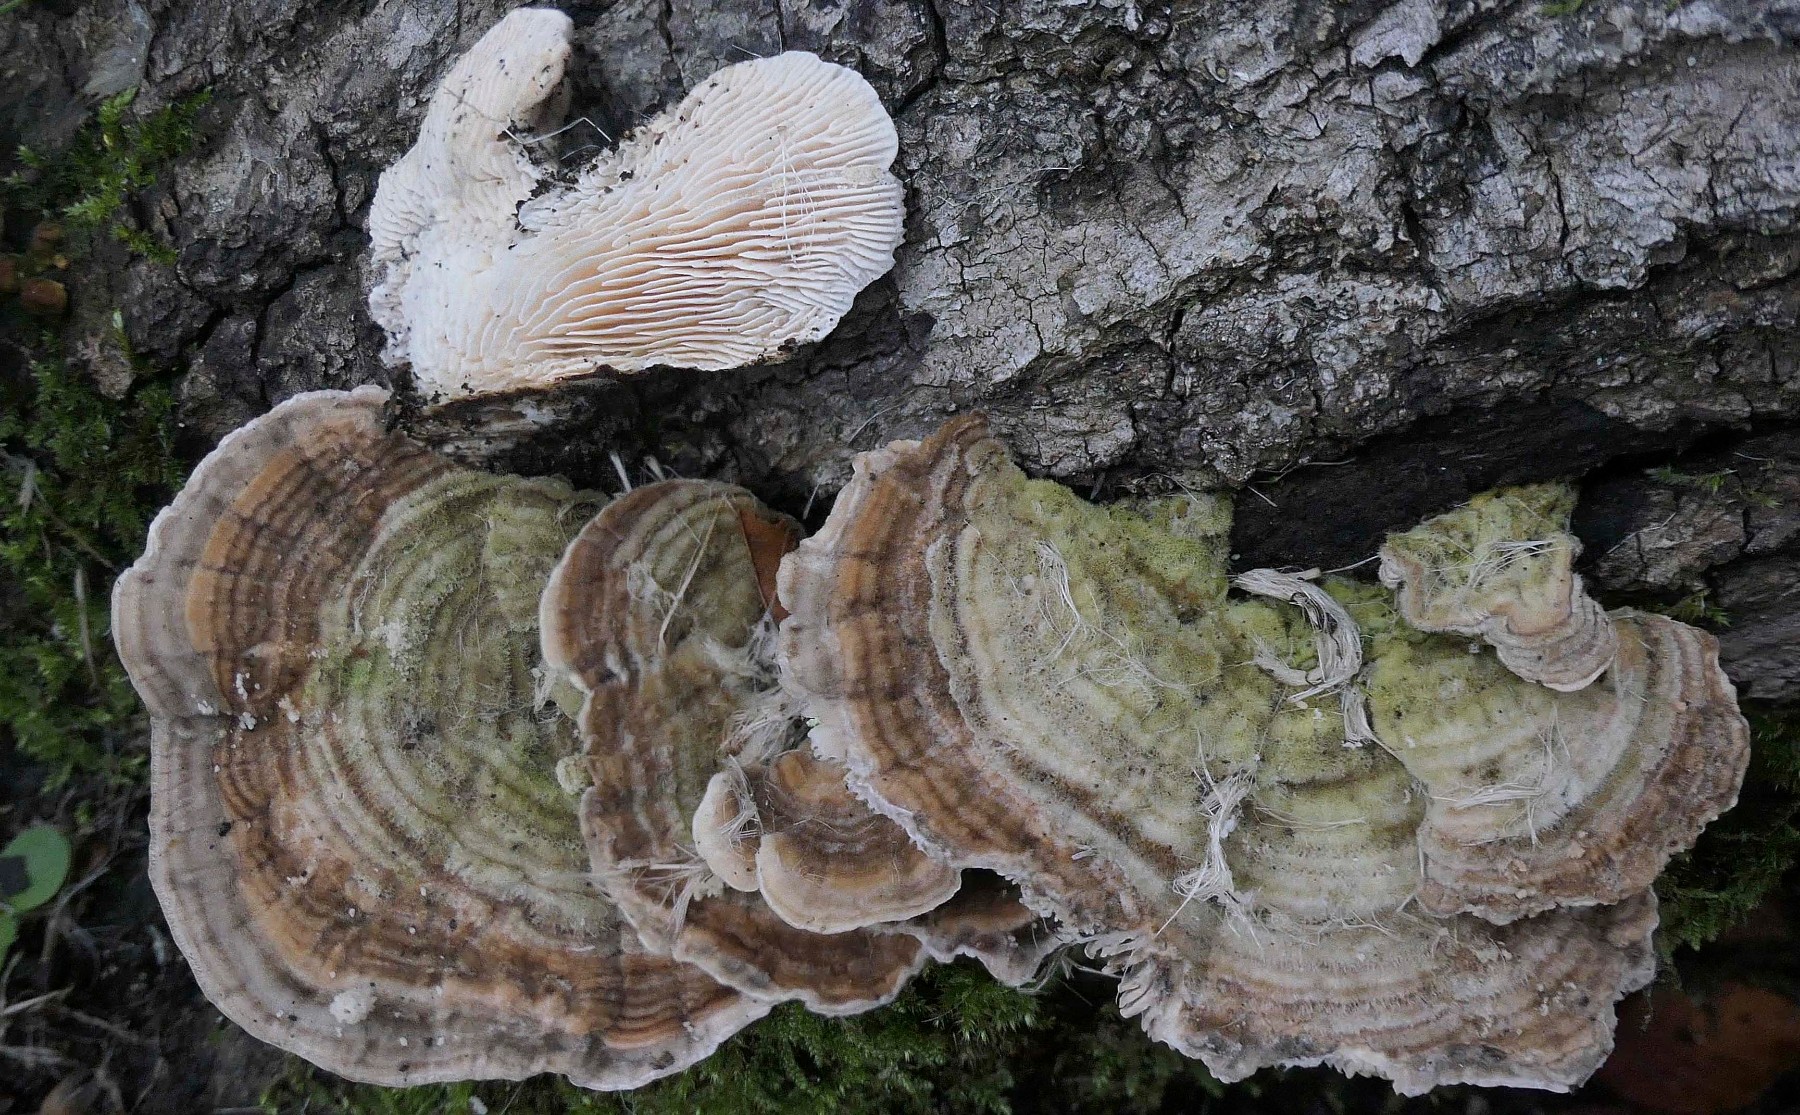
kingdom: Fungi
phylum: Basidiomycota
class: Agaricomycetes
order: Polyporales
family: Polyporaceae
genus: Lenzites
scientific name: Lenzites betulinus
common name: birke-læderporesvamp
